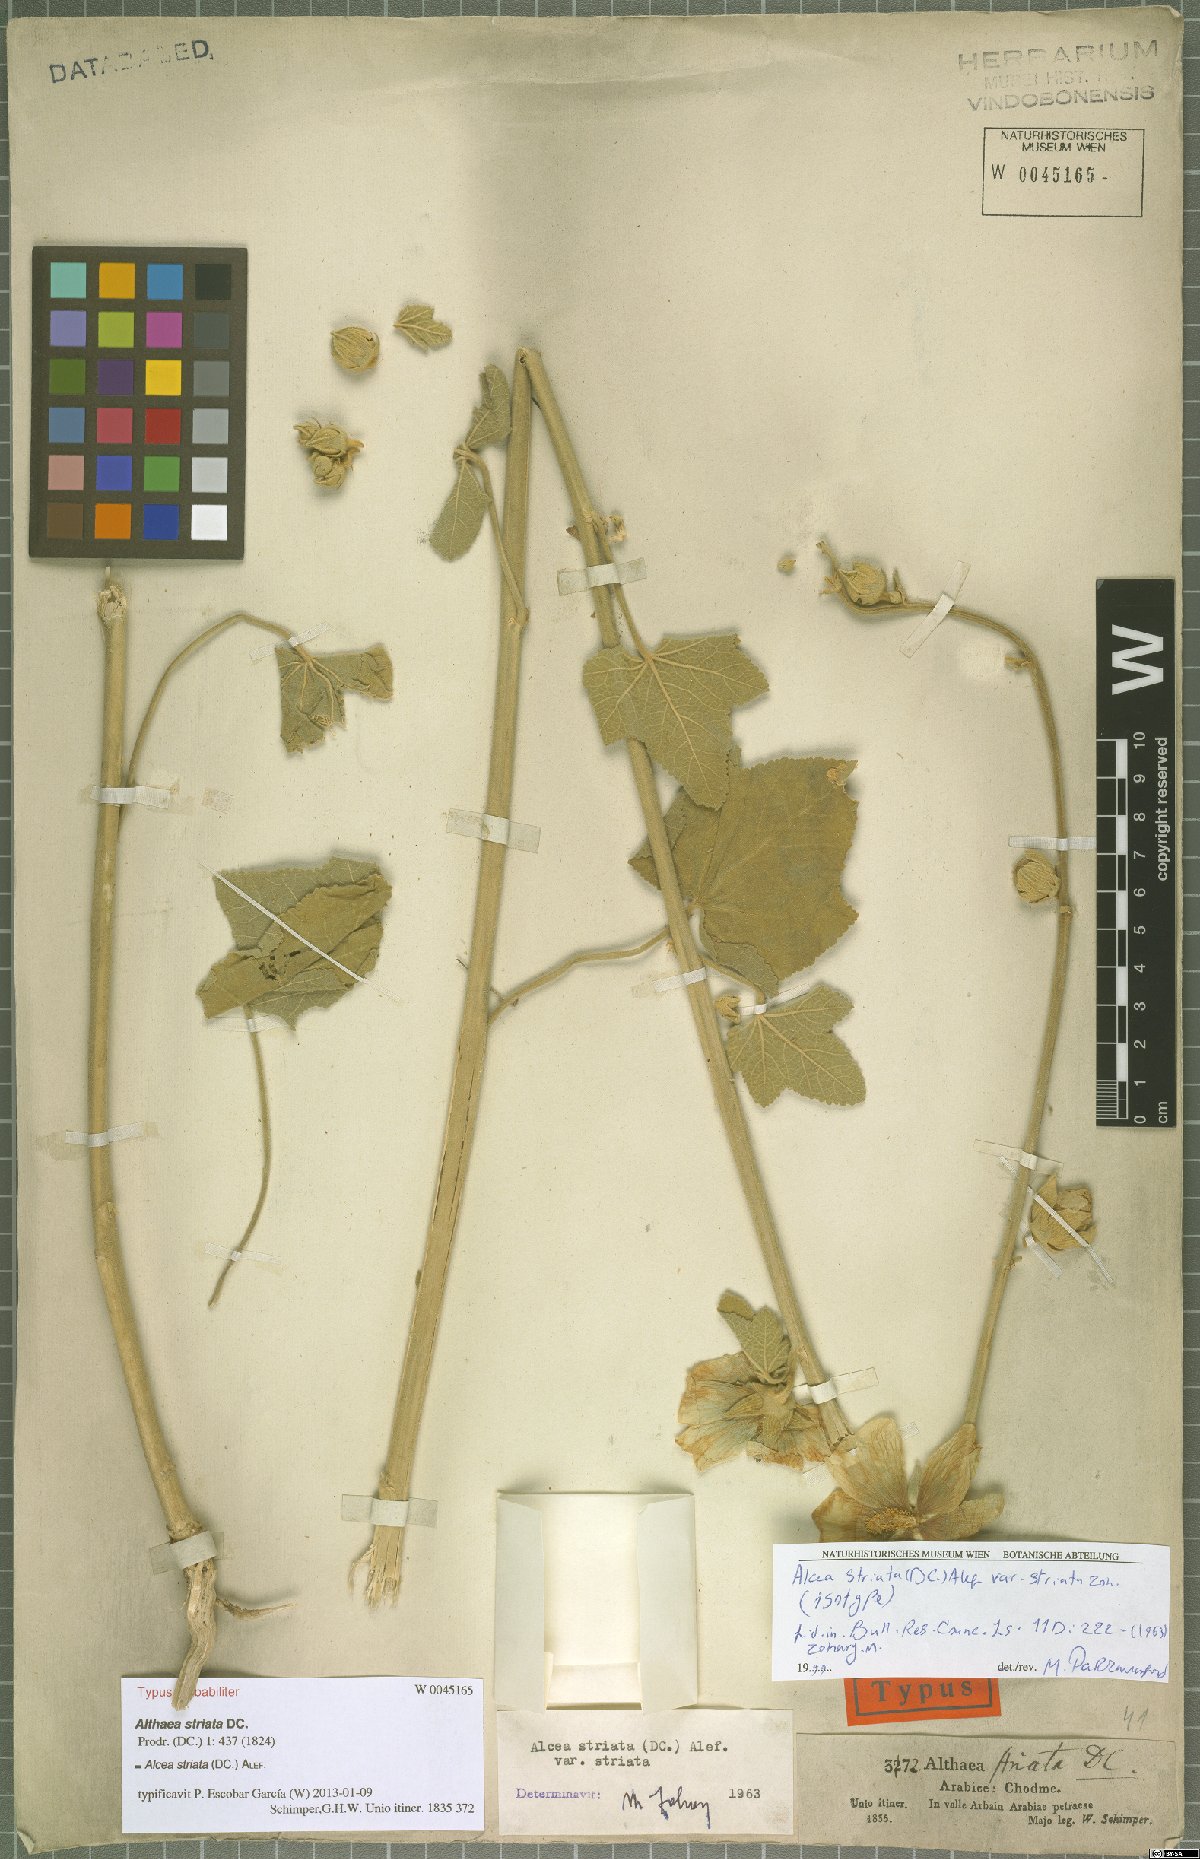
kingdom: Plantae
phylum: Tracheophyta
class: Magnoliopsida
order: Malvales
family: Malvaceae
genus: Alcea
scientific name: Alcea striata
